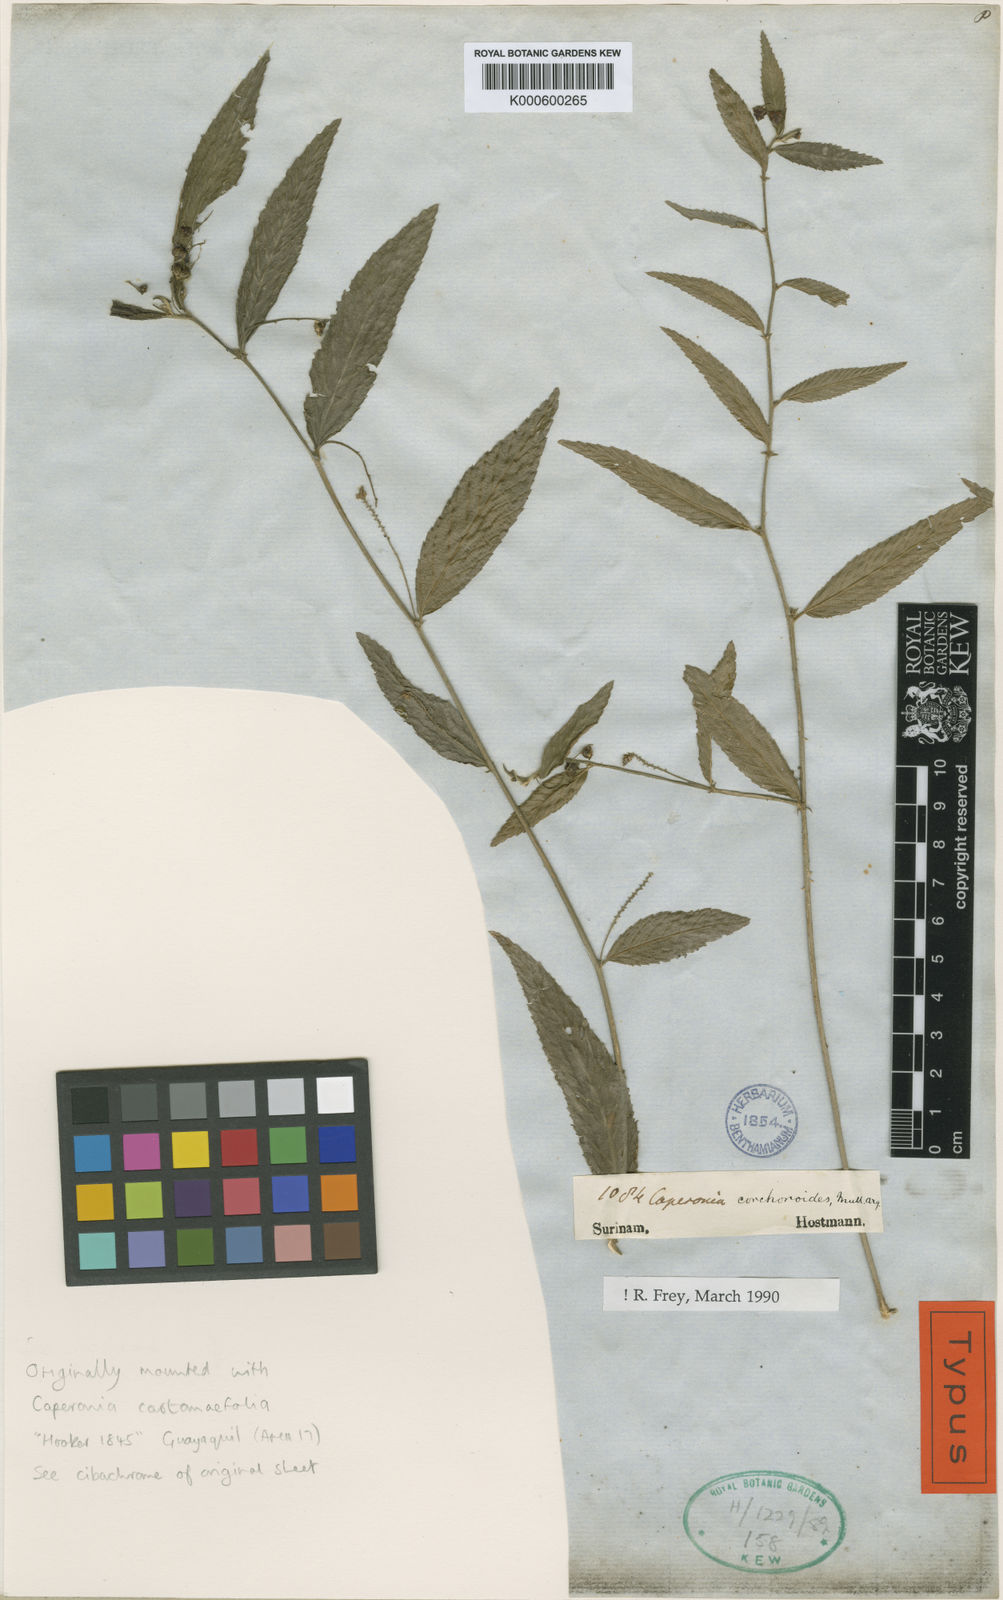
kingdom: Plantae
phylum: Tracheophyta
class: Magnoliopsida
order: Malpighiales
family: Euphorbiaceae
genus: Caperonia
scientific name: Caperonia
